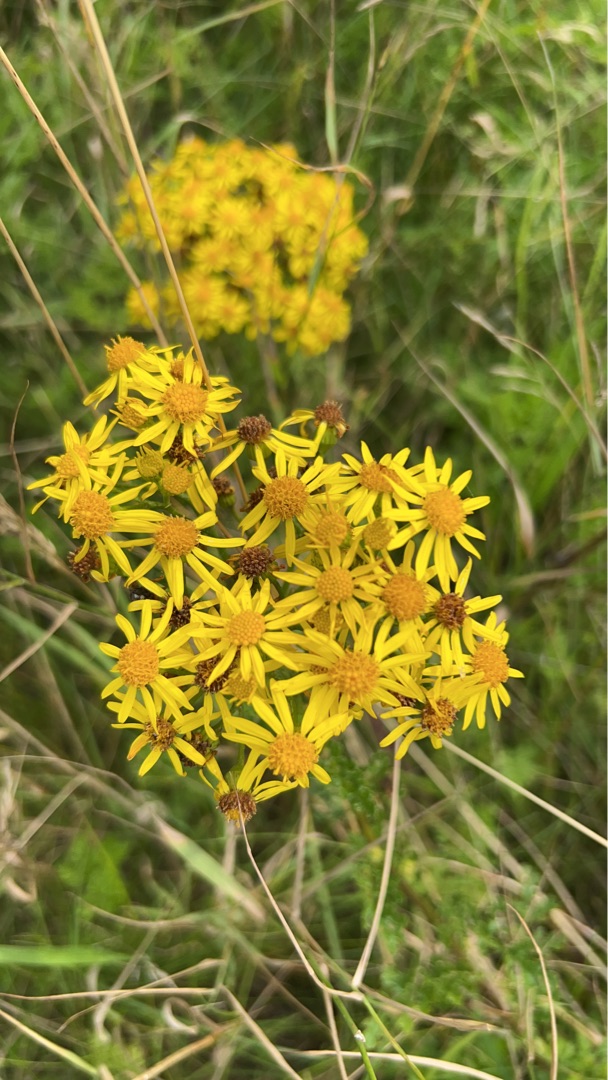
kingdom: Plantae
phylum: Tracheophyta
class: Magnoliopsida
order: Asterales
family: Asteraceae
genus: Jacobaea
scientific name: Jacobaea vulgaris
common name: Eng-brandbæger
